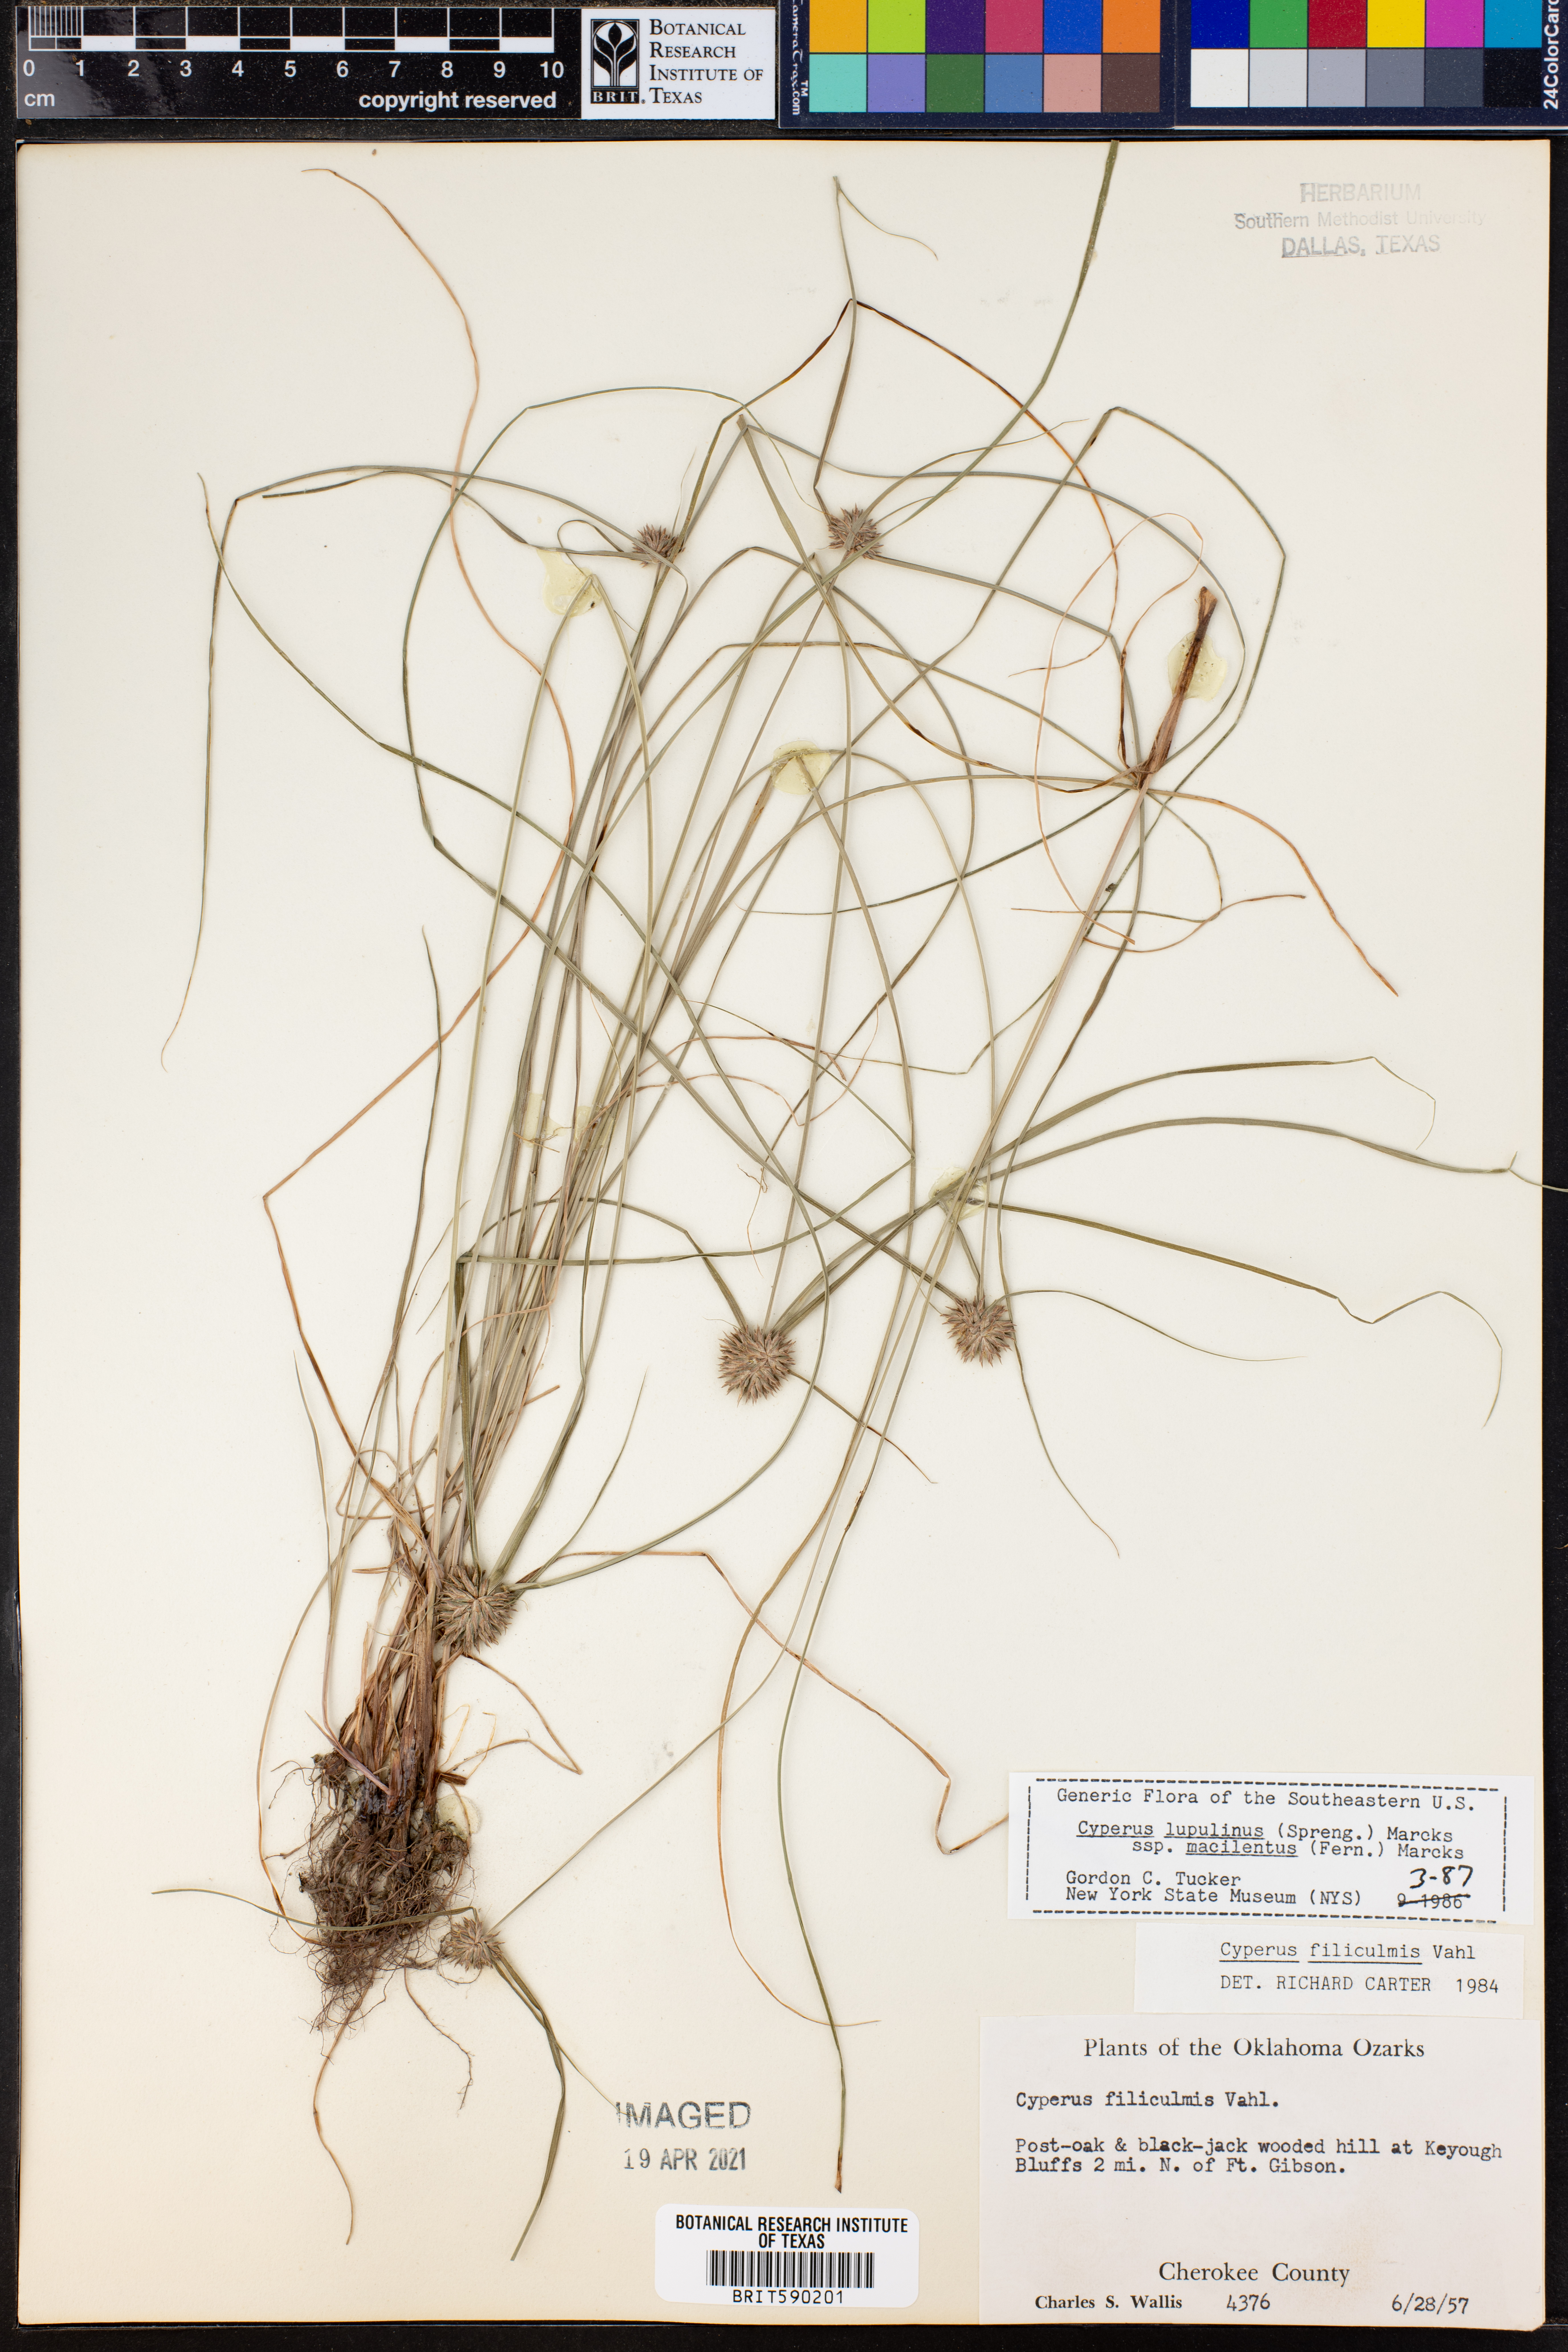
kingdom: Plantae
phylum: Tracheophyta
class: Liliopsida
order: Poales
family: Cyperaceae
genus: Cyperus
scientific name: Cyperus lupulinus
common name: Great plains flatsedge
